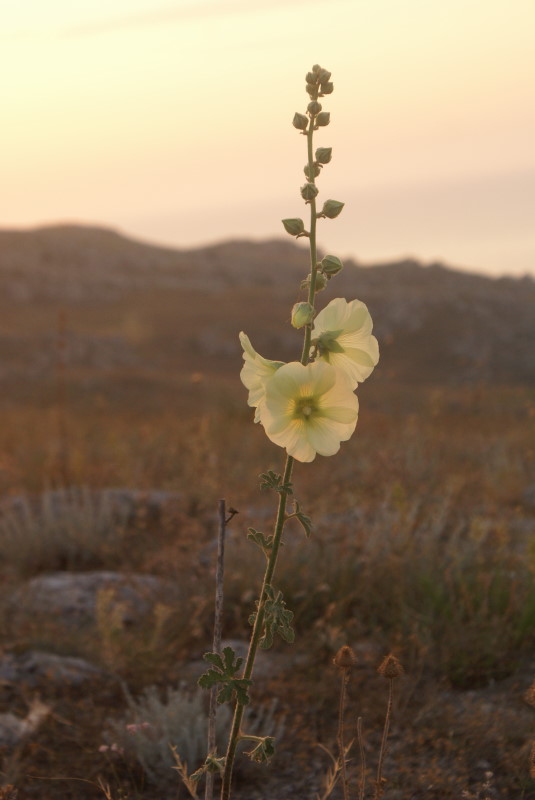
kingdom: Plantae
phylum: Tracheophyta
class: Magnoliopsida
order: Malvales
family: Malvaceae
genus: Alcea
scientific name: Alcea rugosa
